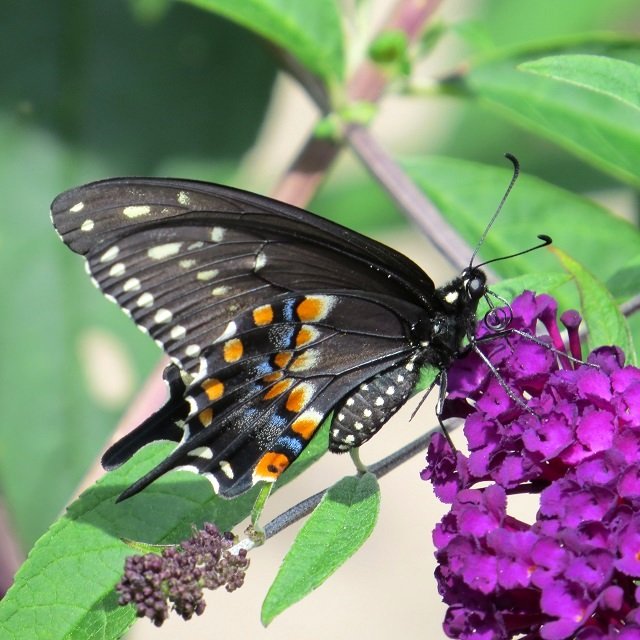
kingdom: Animalia
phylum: Arthropoda
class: Insecta
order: Lepidoptera
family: Papilionidae
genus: Papilio
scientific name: Papilio polyxenes
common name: Black Swallowtail
